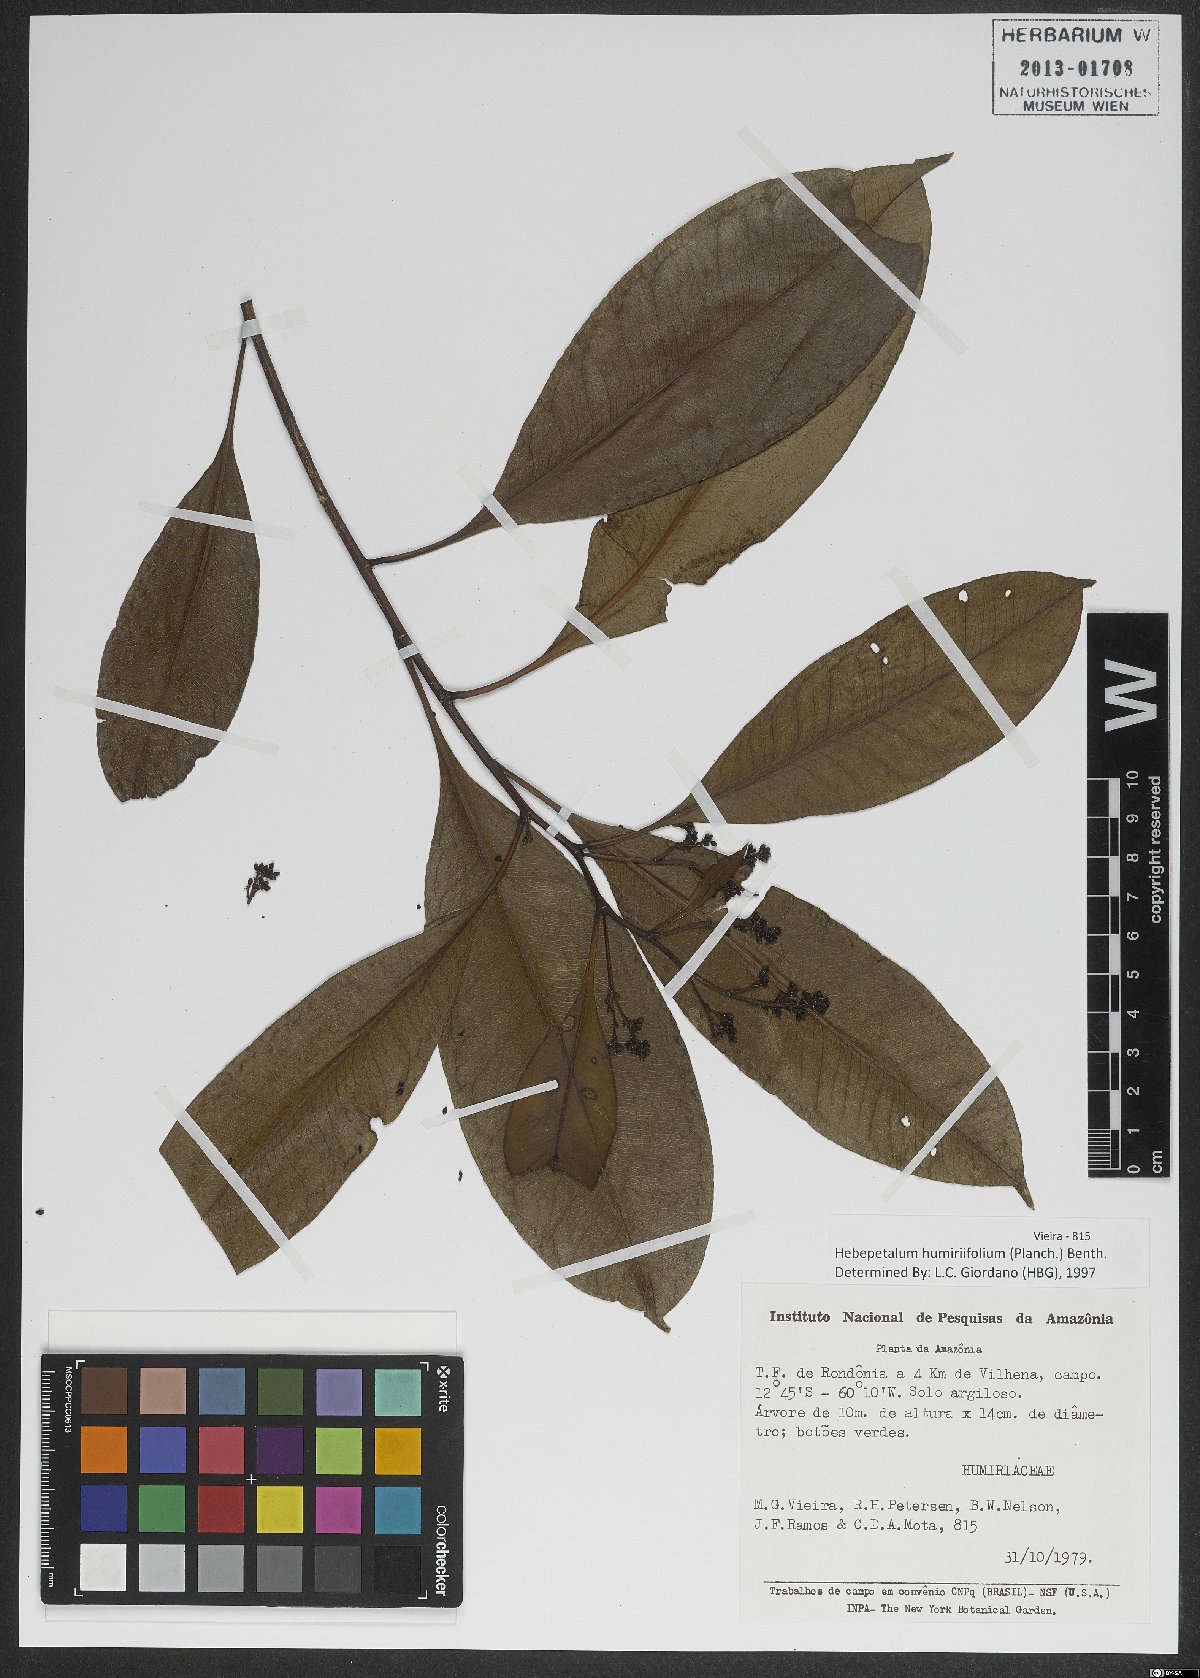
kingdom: Plantae
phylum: Tracheophyta
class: Magnoliopsida
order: Malpighiales
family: Linaceae
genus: Hebepetalum
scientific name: Hebepetalum humiriifolium
